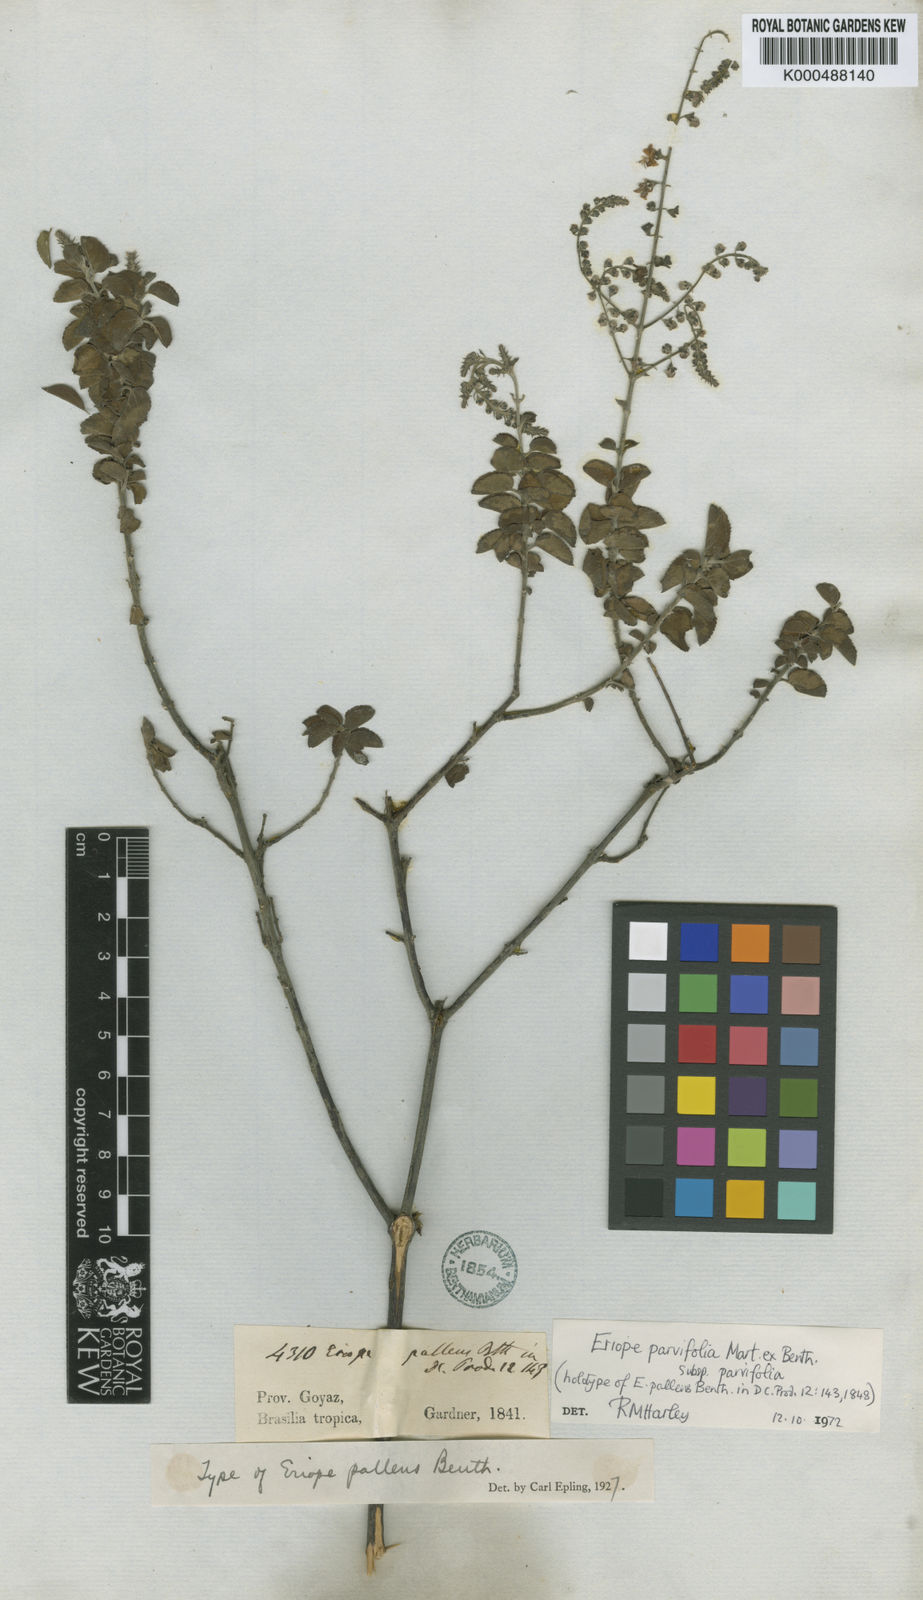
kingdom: Plantae
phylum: Tracheophyta
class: Magnoliopsida
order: Lamiales
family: Lamiaceae
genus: Eriope
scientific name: Eriope parvifolia
